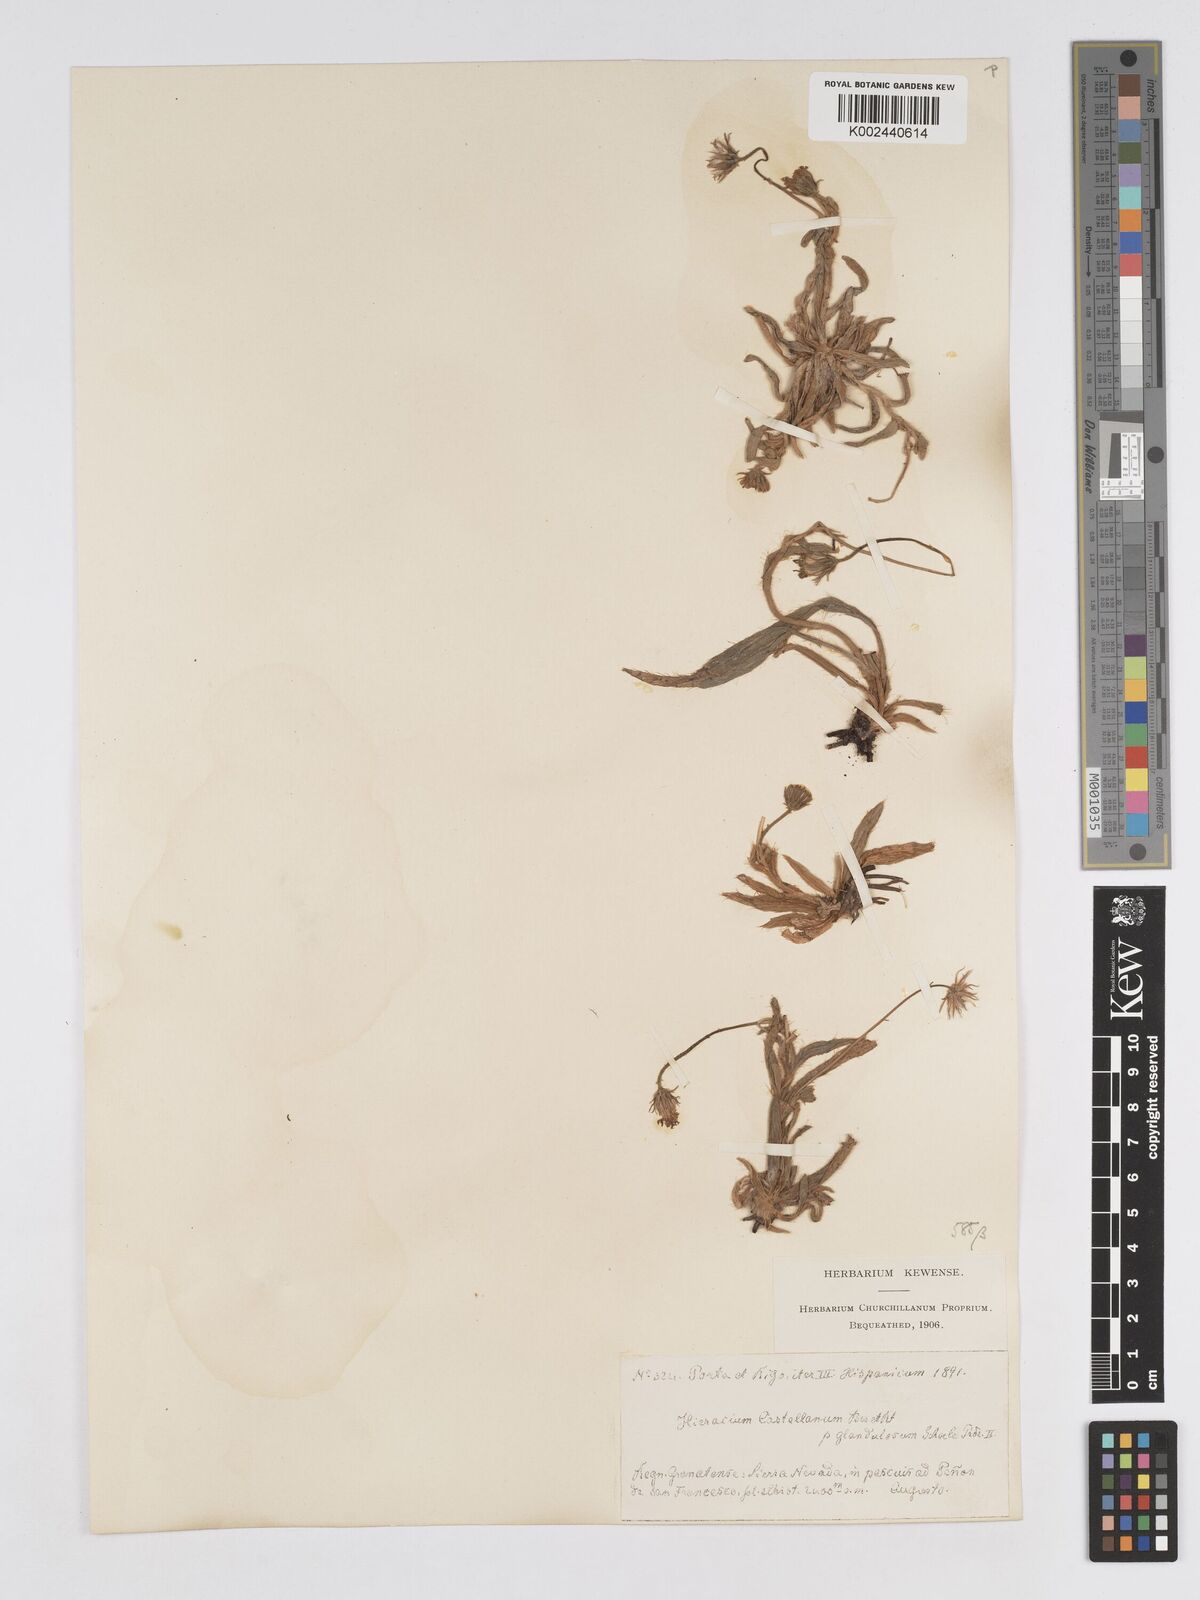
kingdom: Plantae
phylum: Tracheophyta
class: Magnoliopsida
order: Asterales
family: Asteraceae
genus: Pilosella
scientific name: Pilosella castellana
